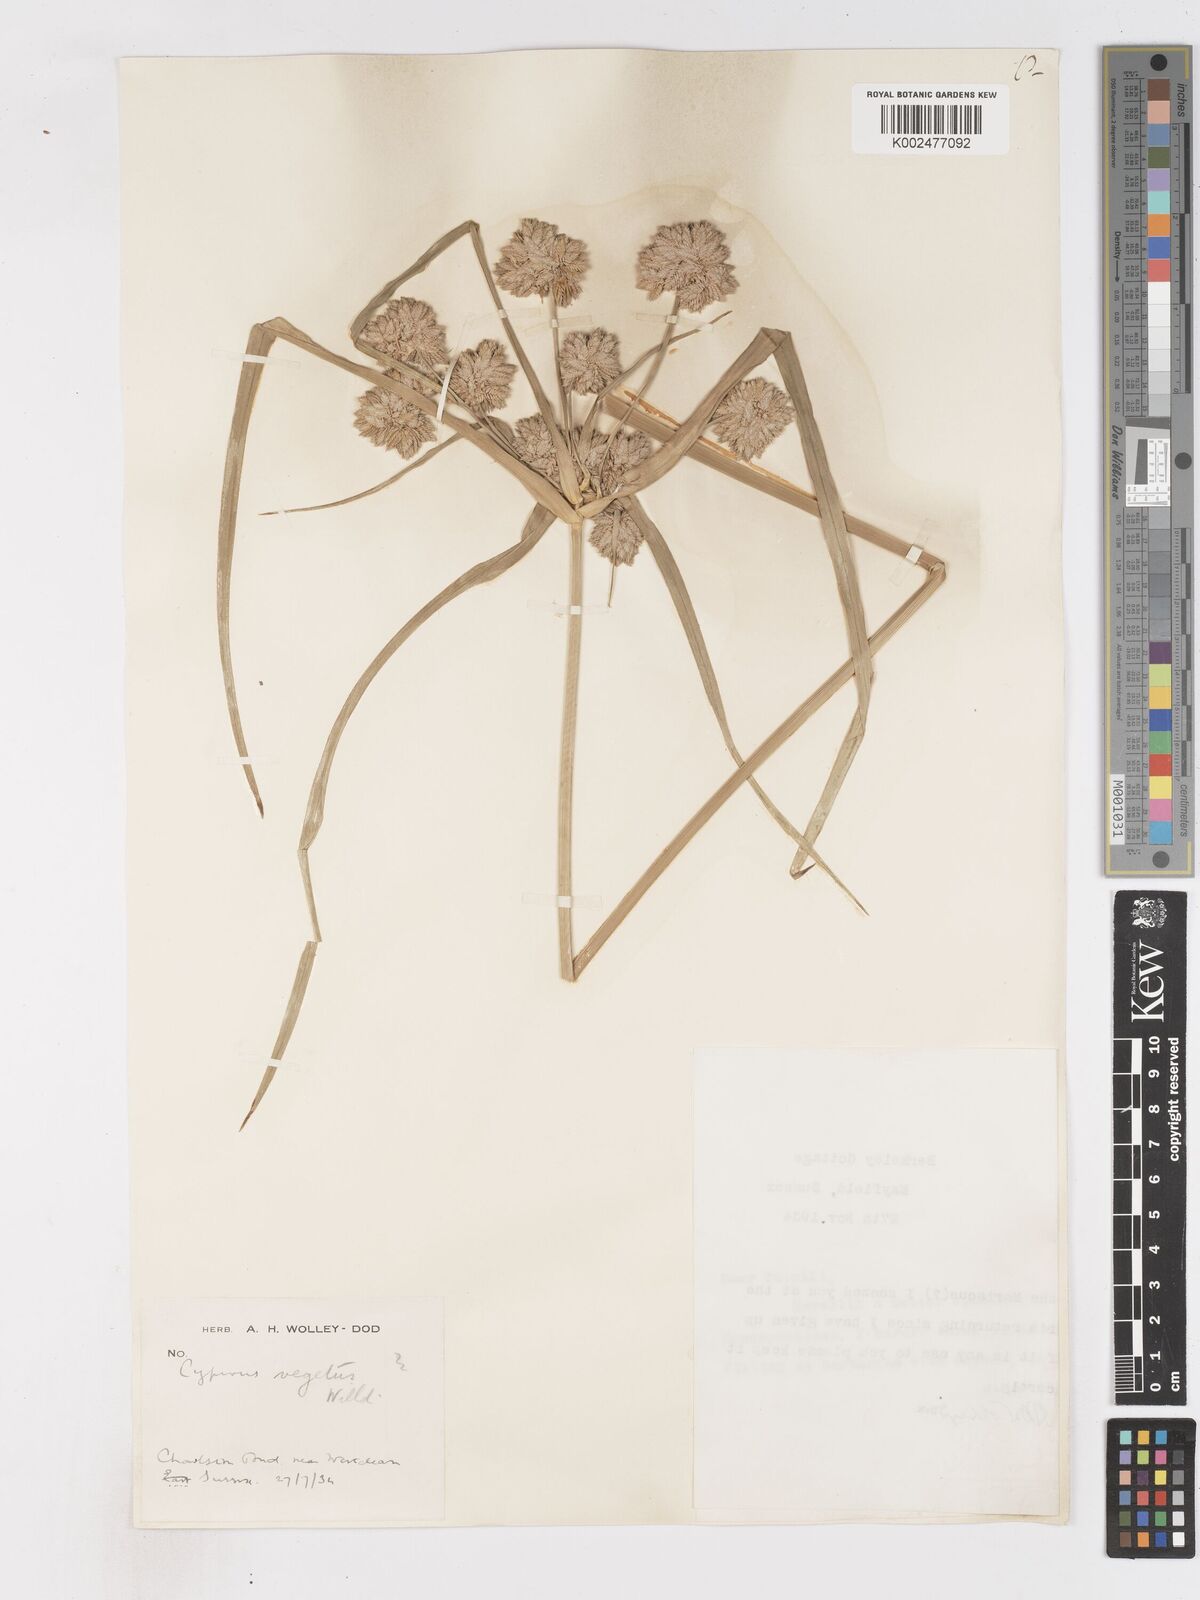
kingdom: Plantae
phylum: Tracheophyta
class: Liliopsida
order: Poales
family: Cyperaceae
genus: Cyperus
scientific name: Cyperus eragrostis
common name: Tall flatsedge
